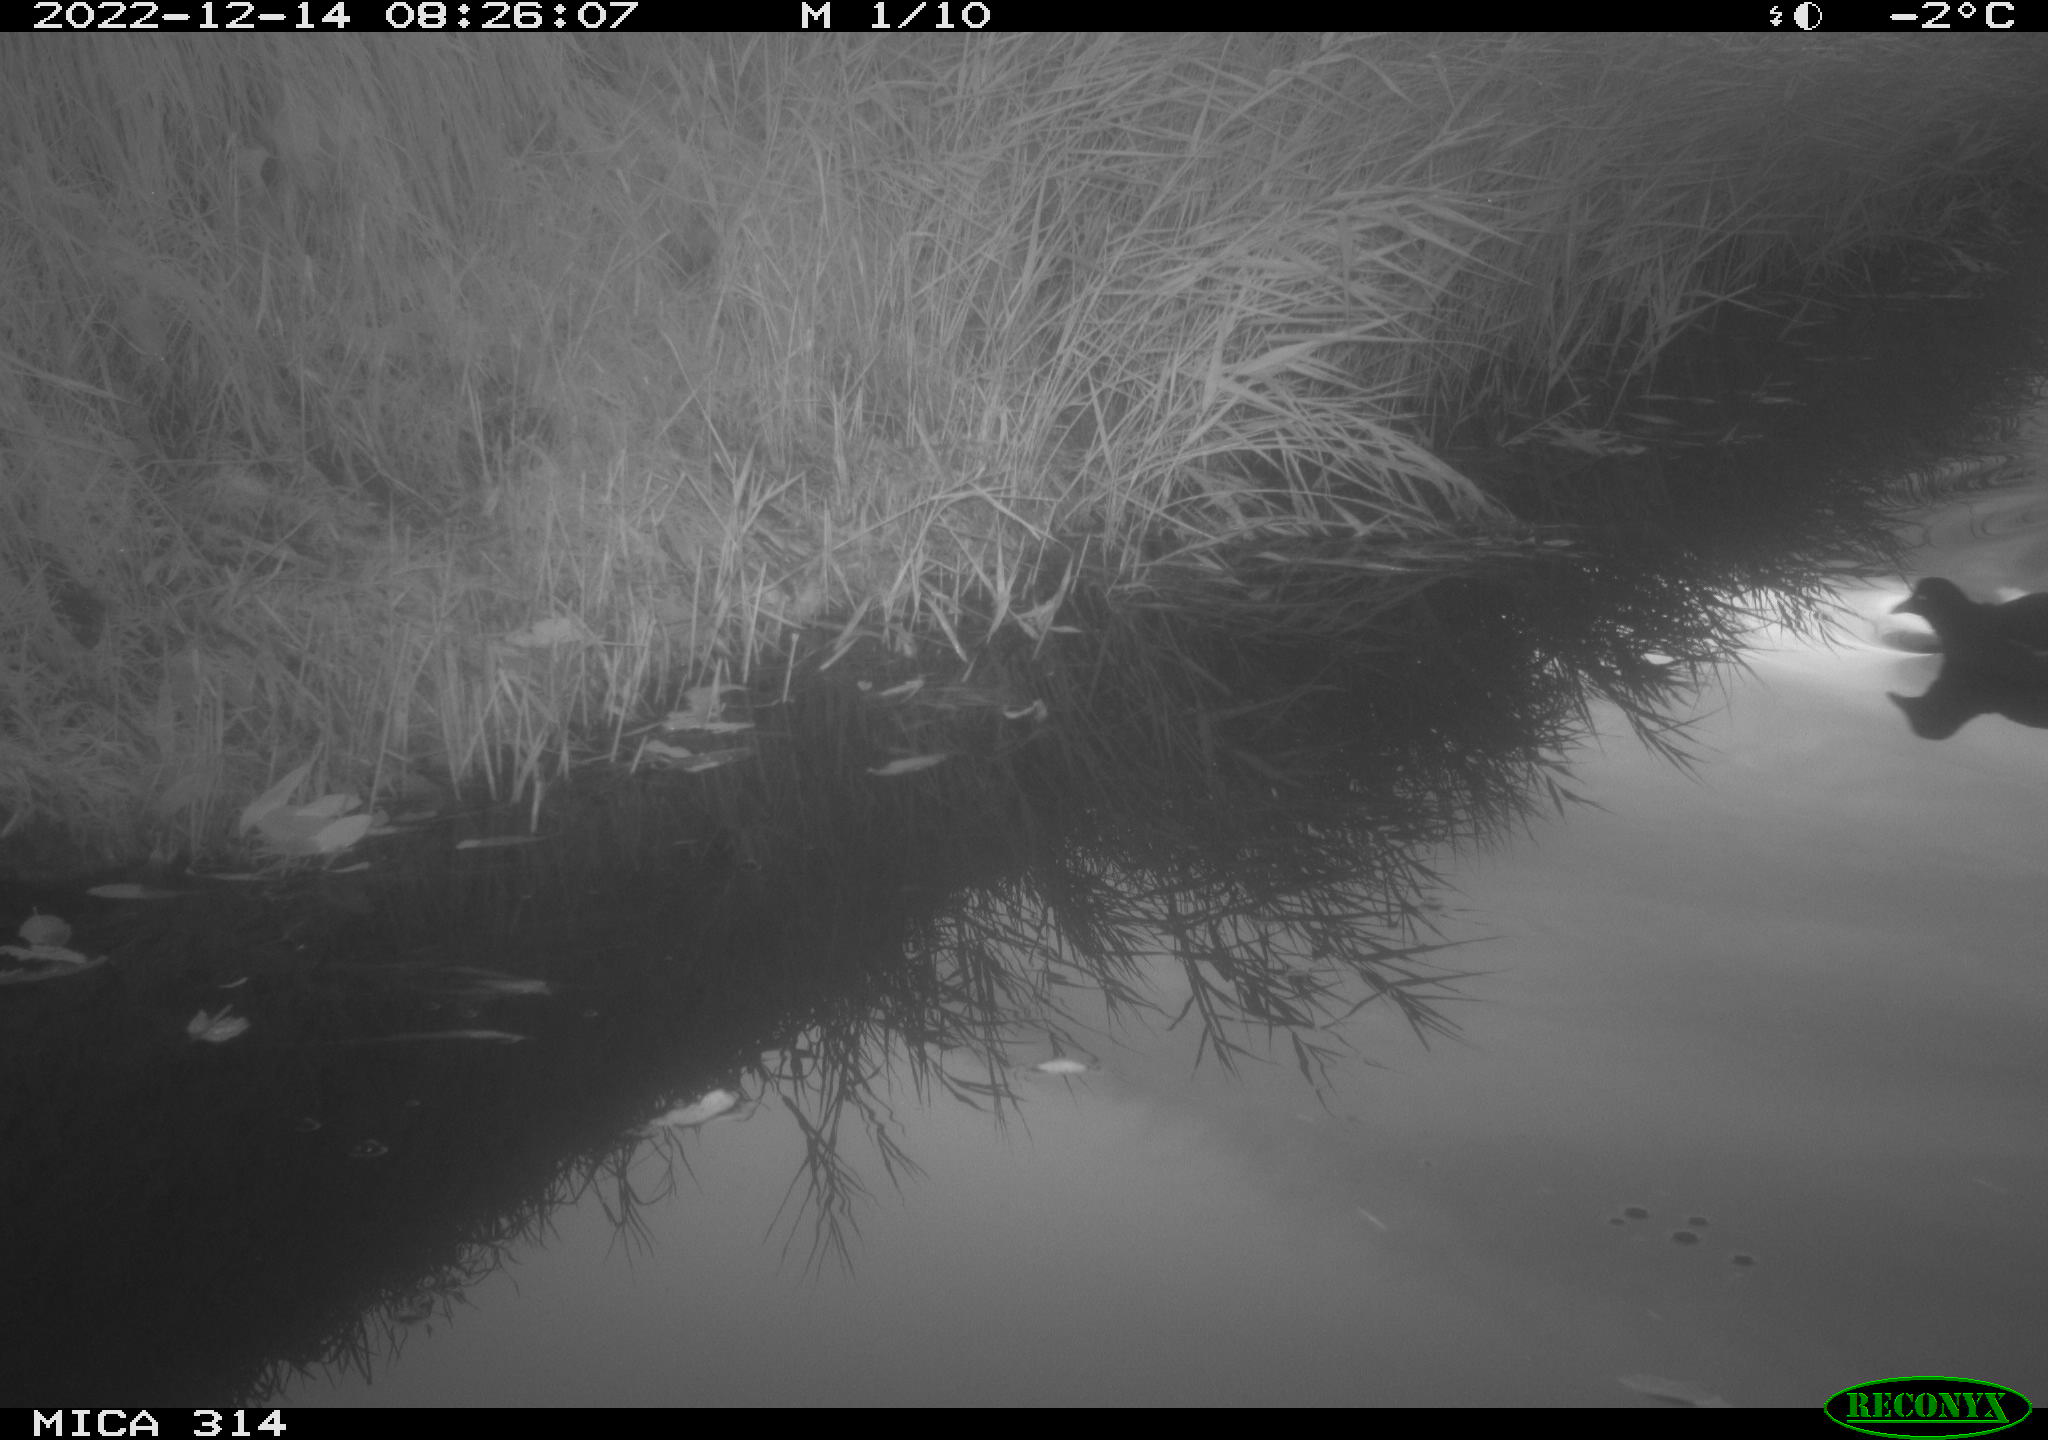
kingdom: Animalia
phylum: Chordata
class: Aves
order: Gruiformes
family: Rallidae
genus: Gallinula
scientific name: Gallinula chloropus
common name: Common moorhen
